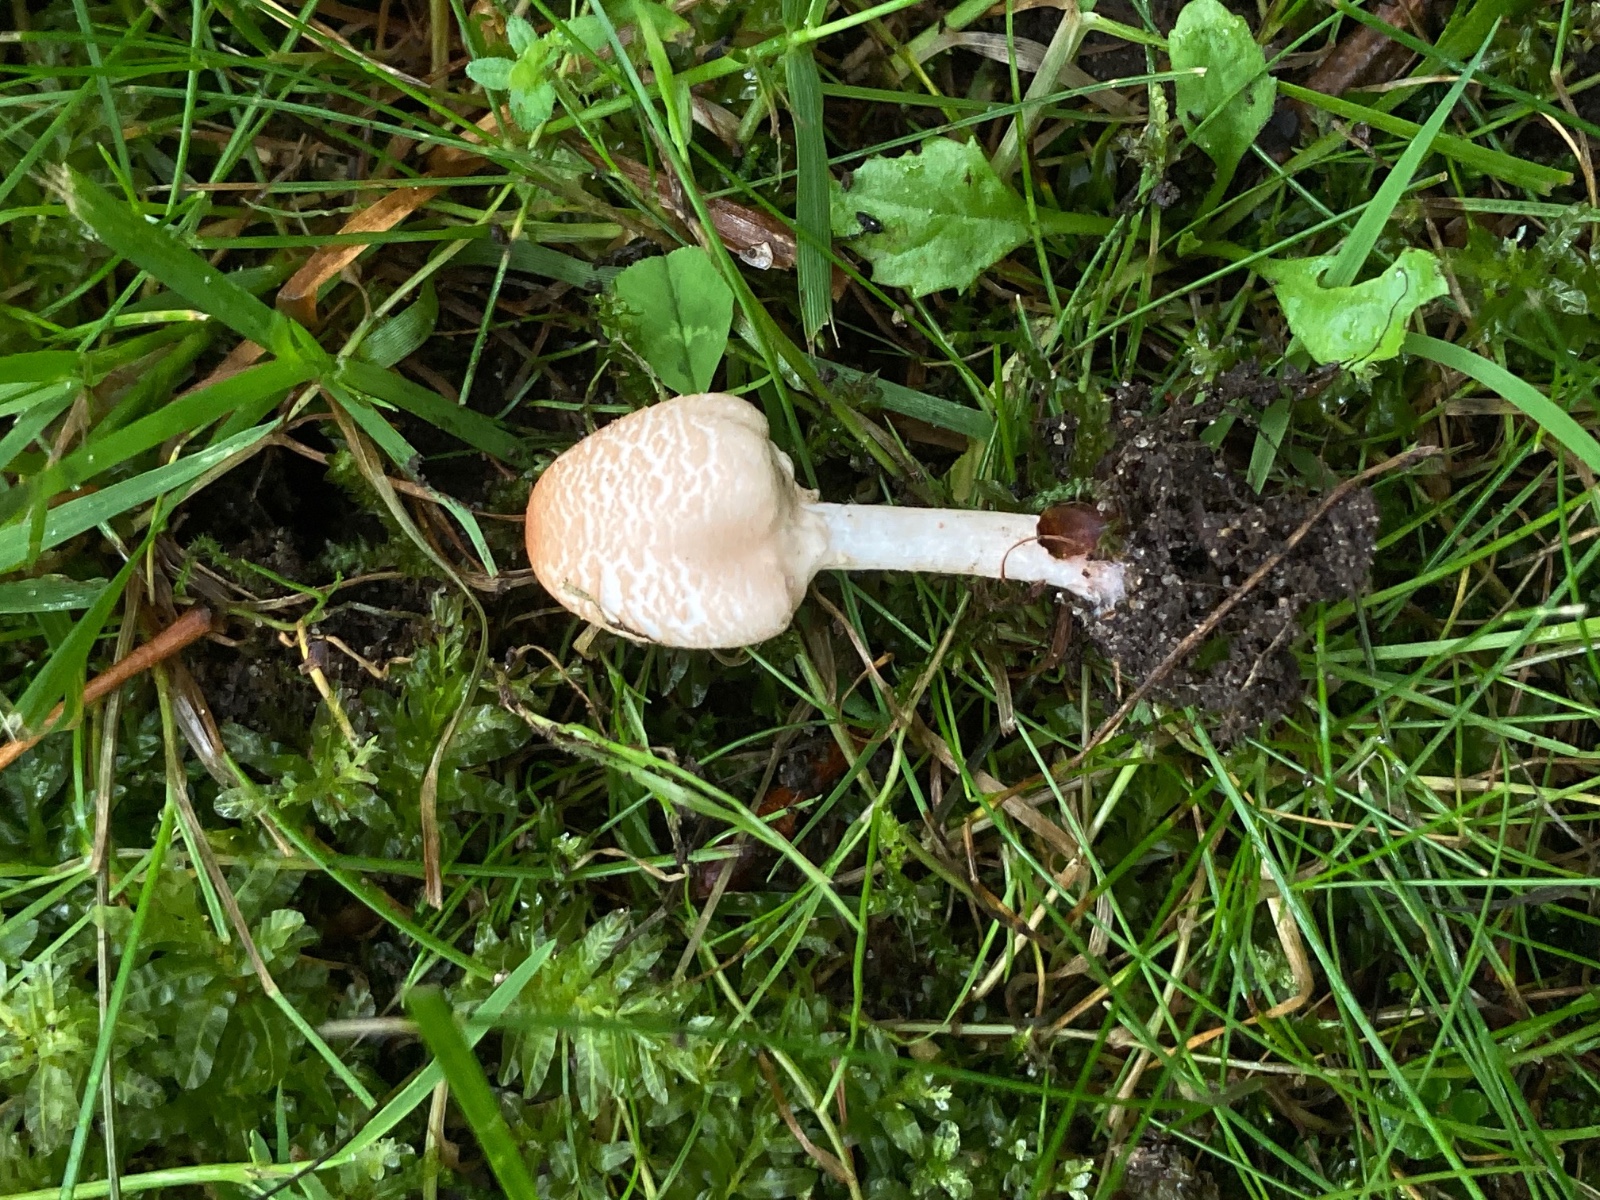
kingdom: Fungi
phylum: Basidiomycota
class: Agaricomycetes
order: Agaricales
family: Agaricaceae
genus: Lepiota
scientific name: Lepiota cristata
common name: stinkende parasolhat
